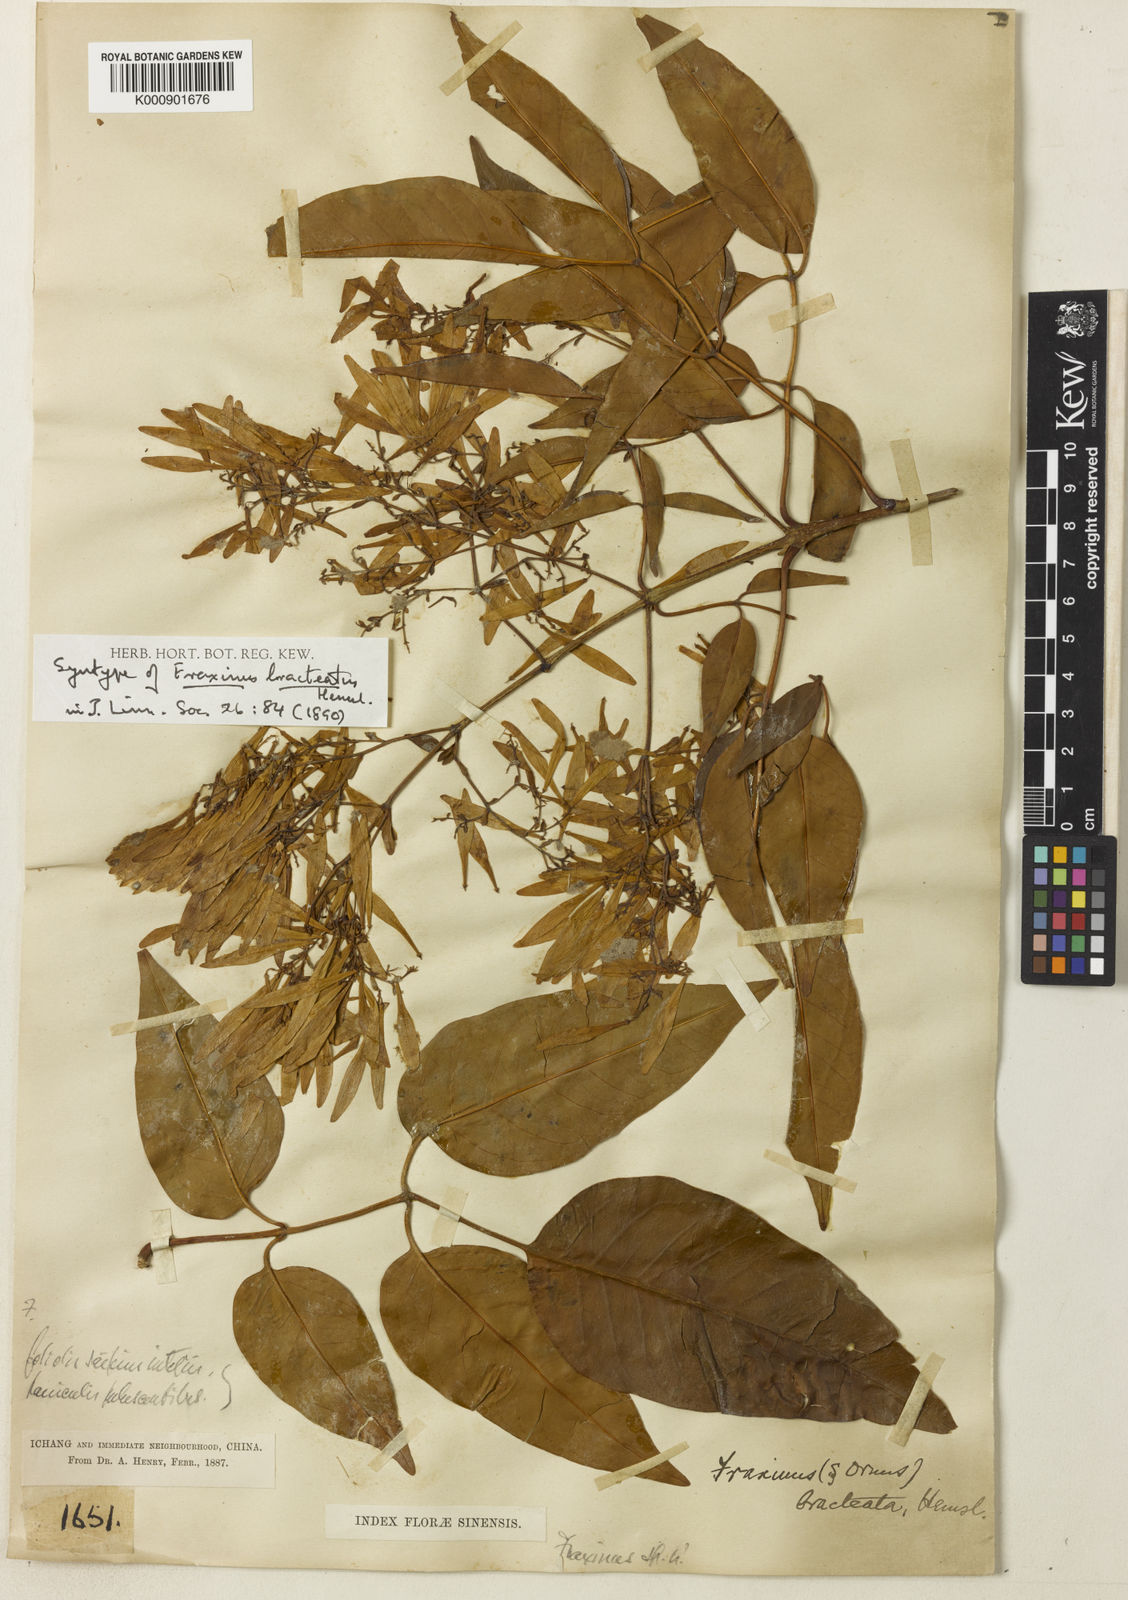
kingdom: Plantae
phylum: Tracheophyta
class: Magnoliopsida
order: Lamiales
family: Oleaceae
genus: Fraxinus
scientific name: Fraxinus griffithii
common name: Himalayan ash
